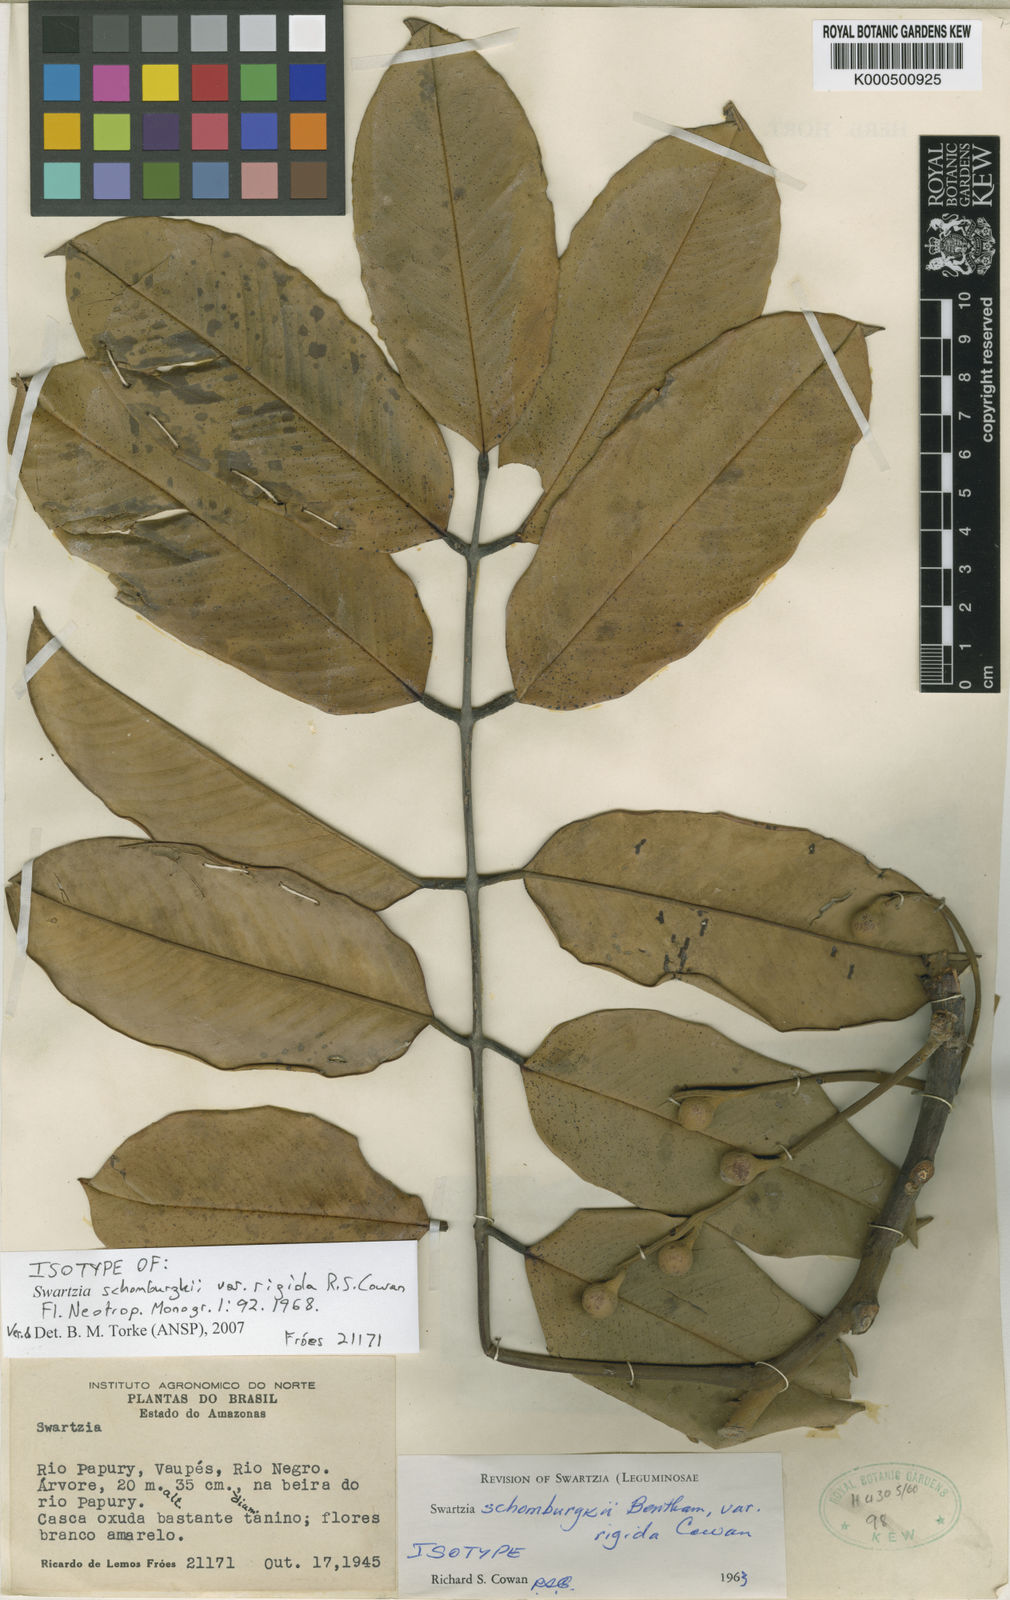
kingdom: Plantae
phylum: Tracheophyta
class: Magnoliopsida
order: Fabales
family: Fabaceae
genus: Swartzia
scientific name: Swartzia schomburgkii
